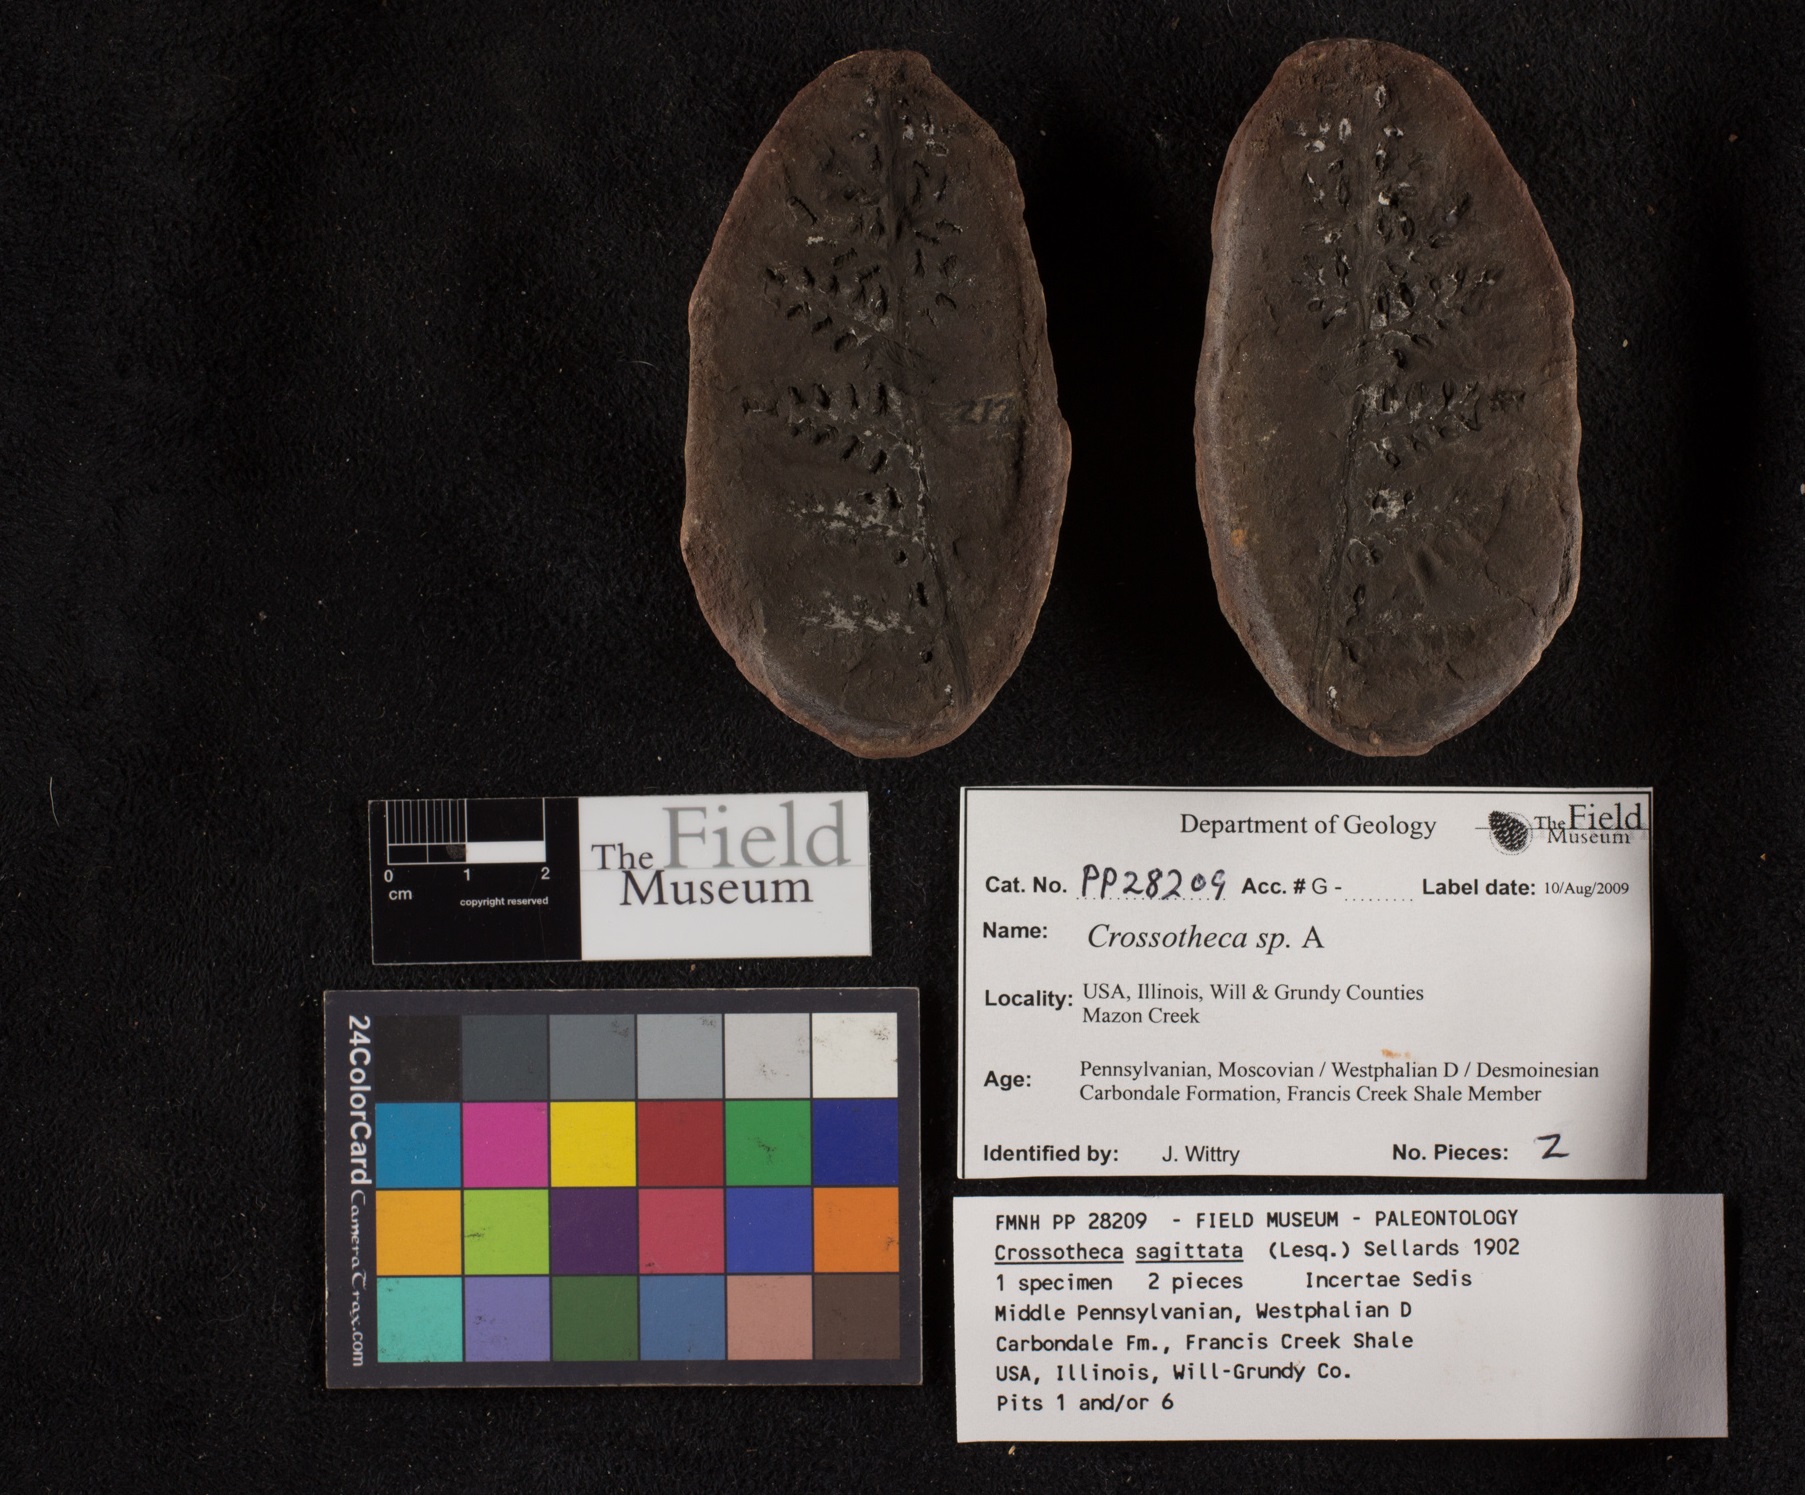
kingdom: Plantae
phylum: Tracheophyta
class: Polypodiopsida
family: Stauropteridaceae
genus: Crossotheca
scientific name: Crossotheca
